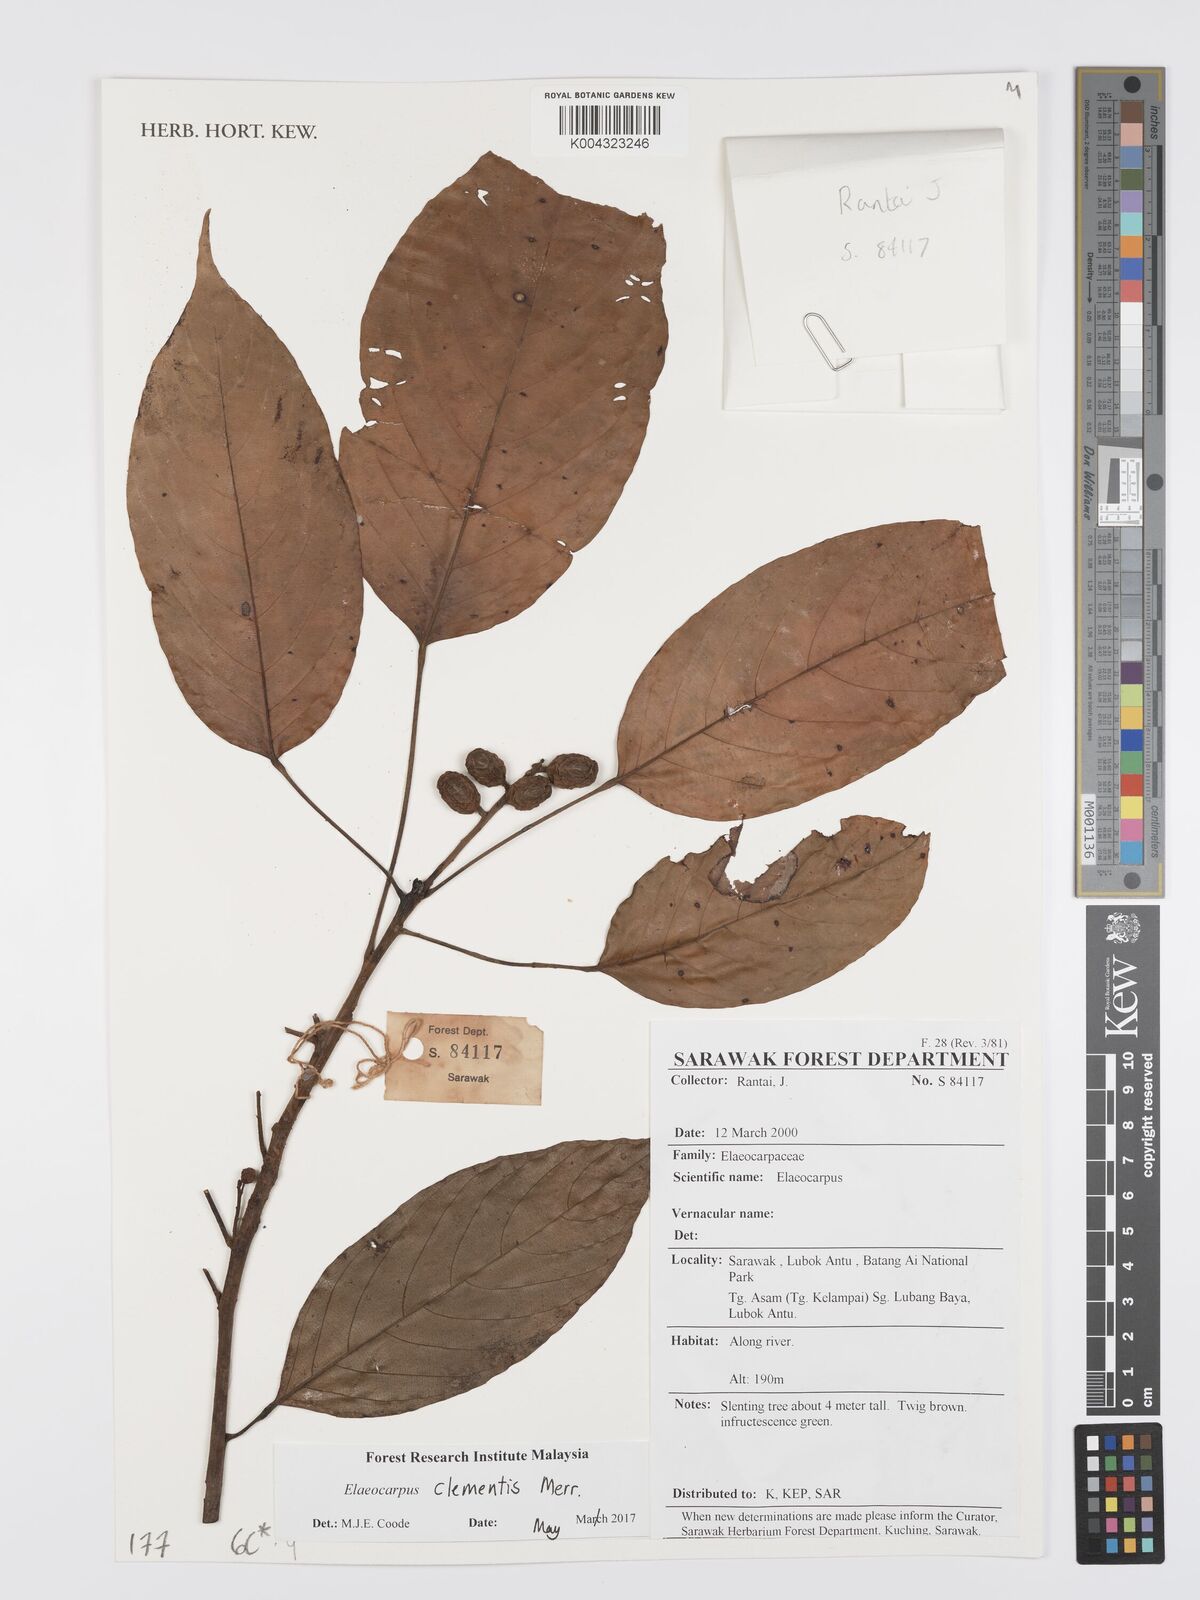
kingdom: Plantae
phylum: Tracheophyta
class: Magnoliopsida
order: Oxalidales
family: Elaeocarpaceae
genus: Elaeocarpus
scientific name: Elaeocarpus clementis
